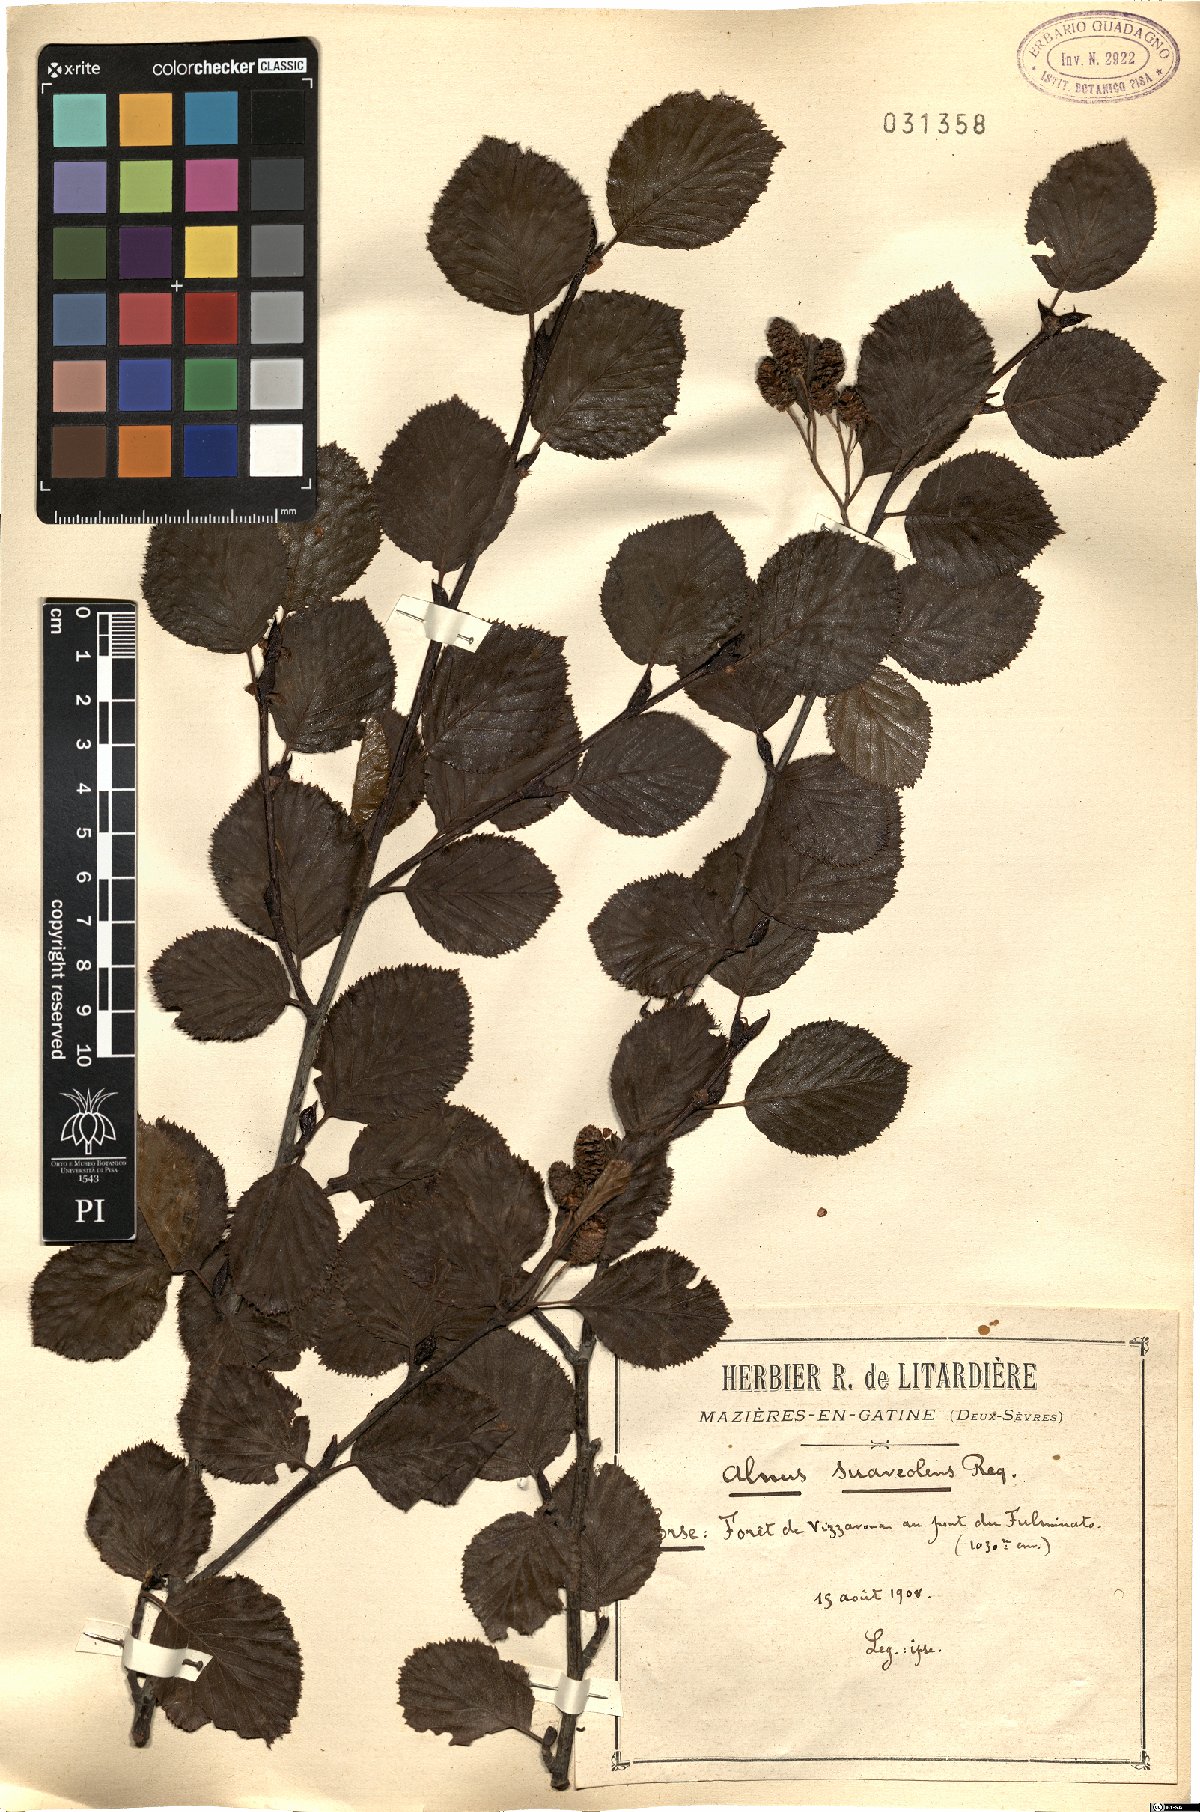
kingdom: Plantae
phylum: Tracheophyta
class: Magnoliopsida
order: Fagales
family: Betulaceae
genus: Alnus
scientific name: Alnus alnobetula
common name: Green alder
